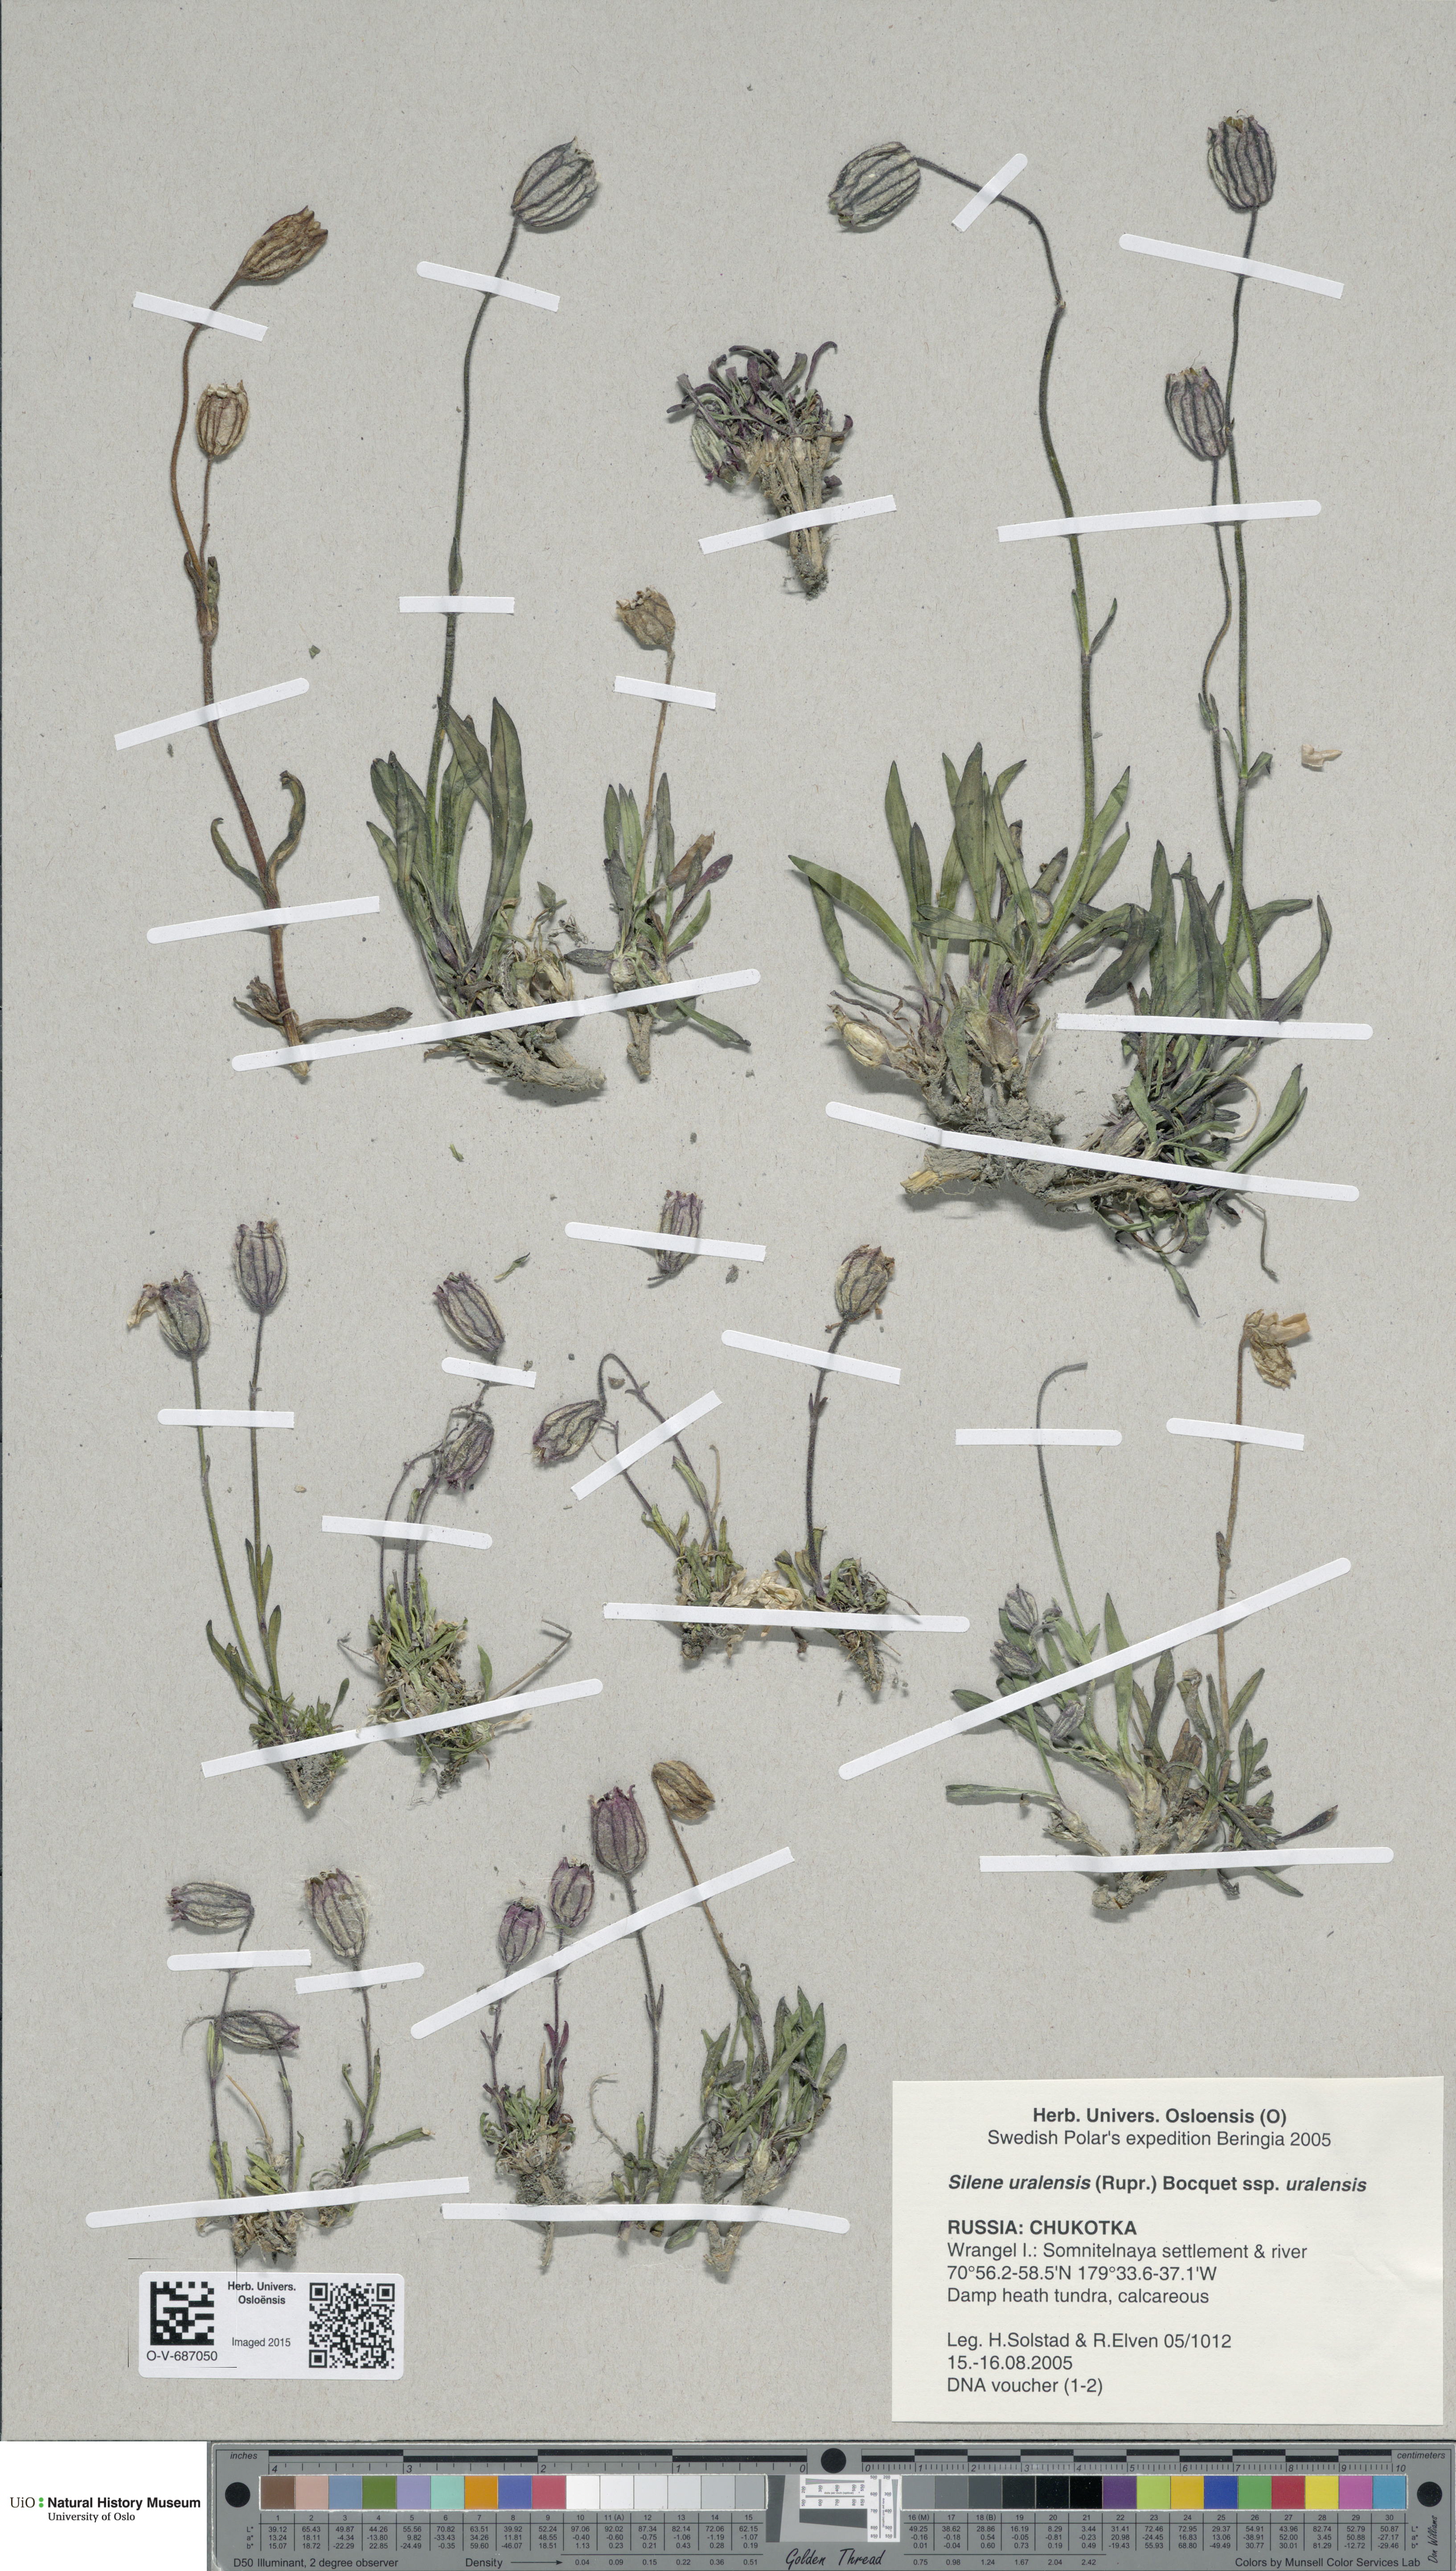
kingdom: Plantae
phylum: Tracheophyta
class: Magnoliopsida
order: Caryophyllales
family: Caryophyllaceae
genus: Silene
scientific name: Silene uralensis
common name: Nodding campion
